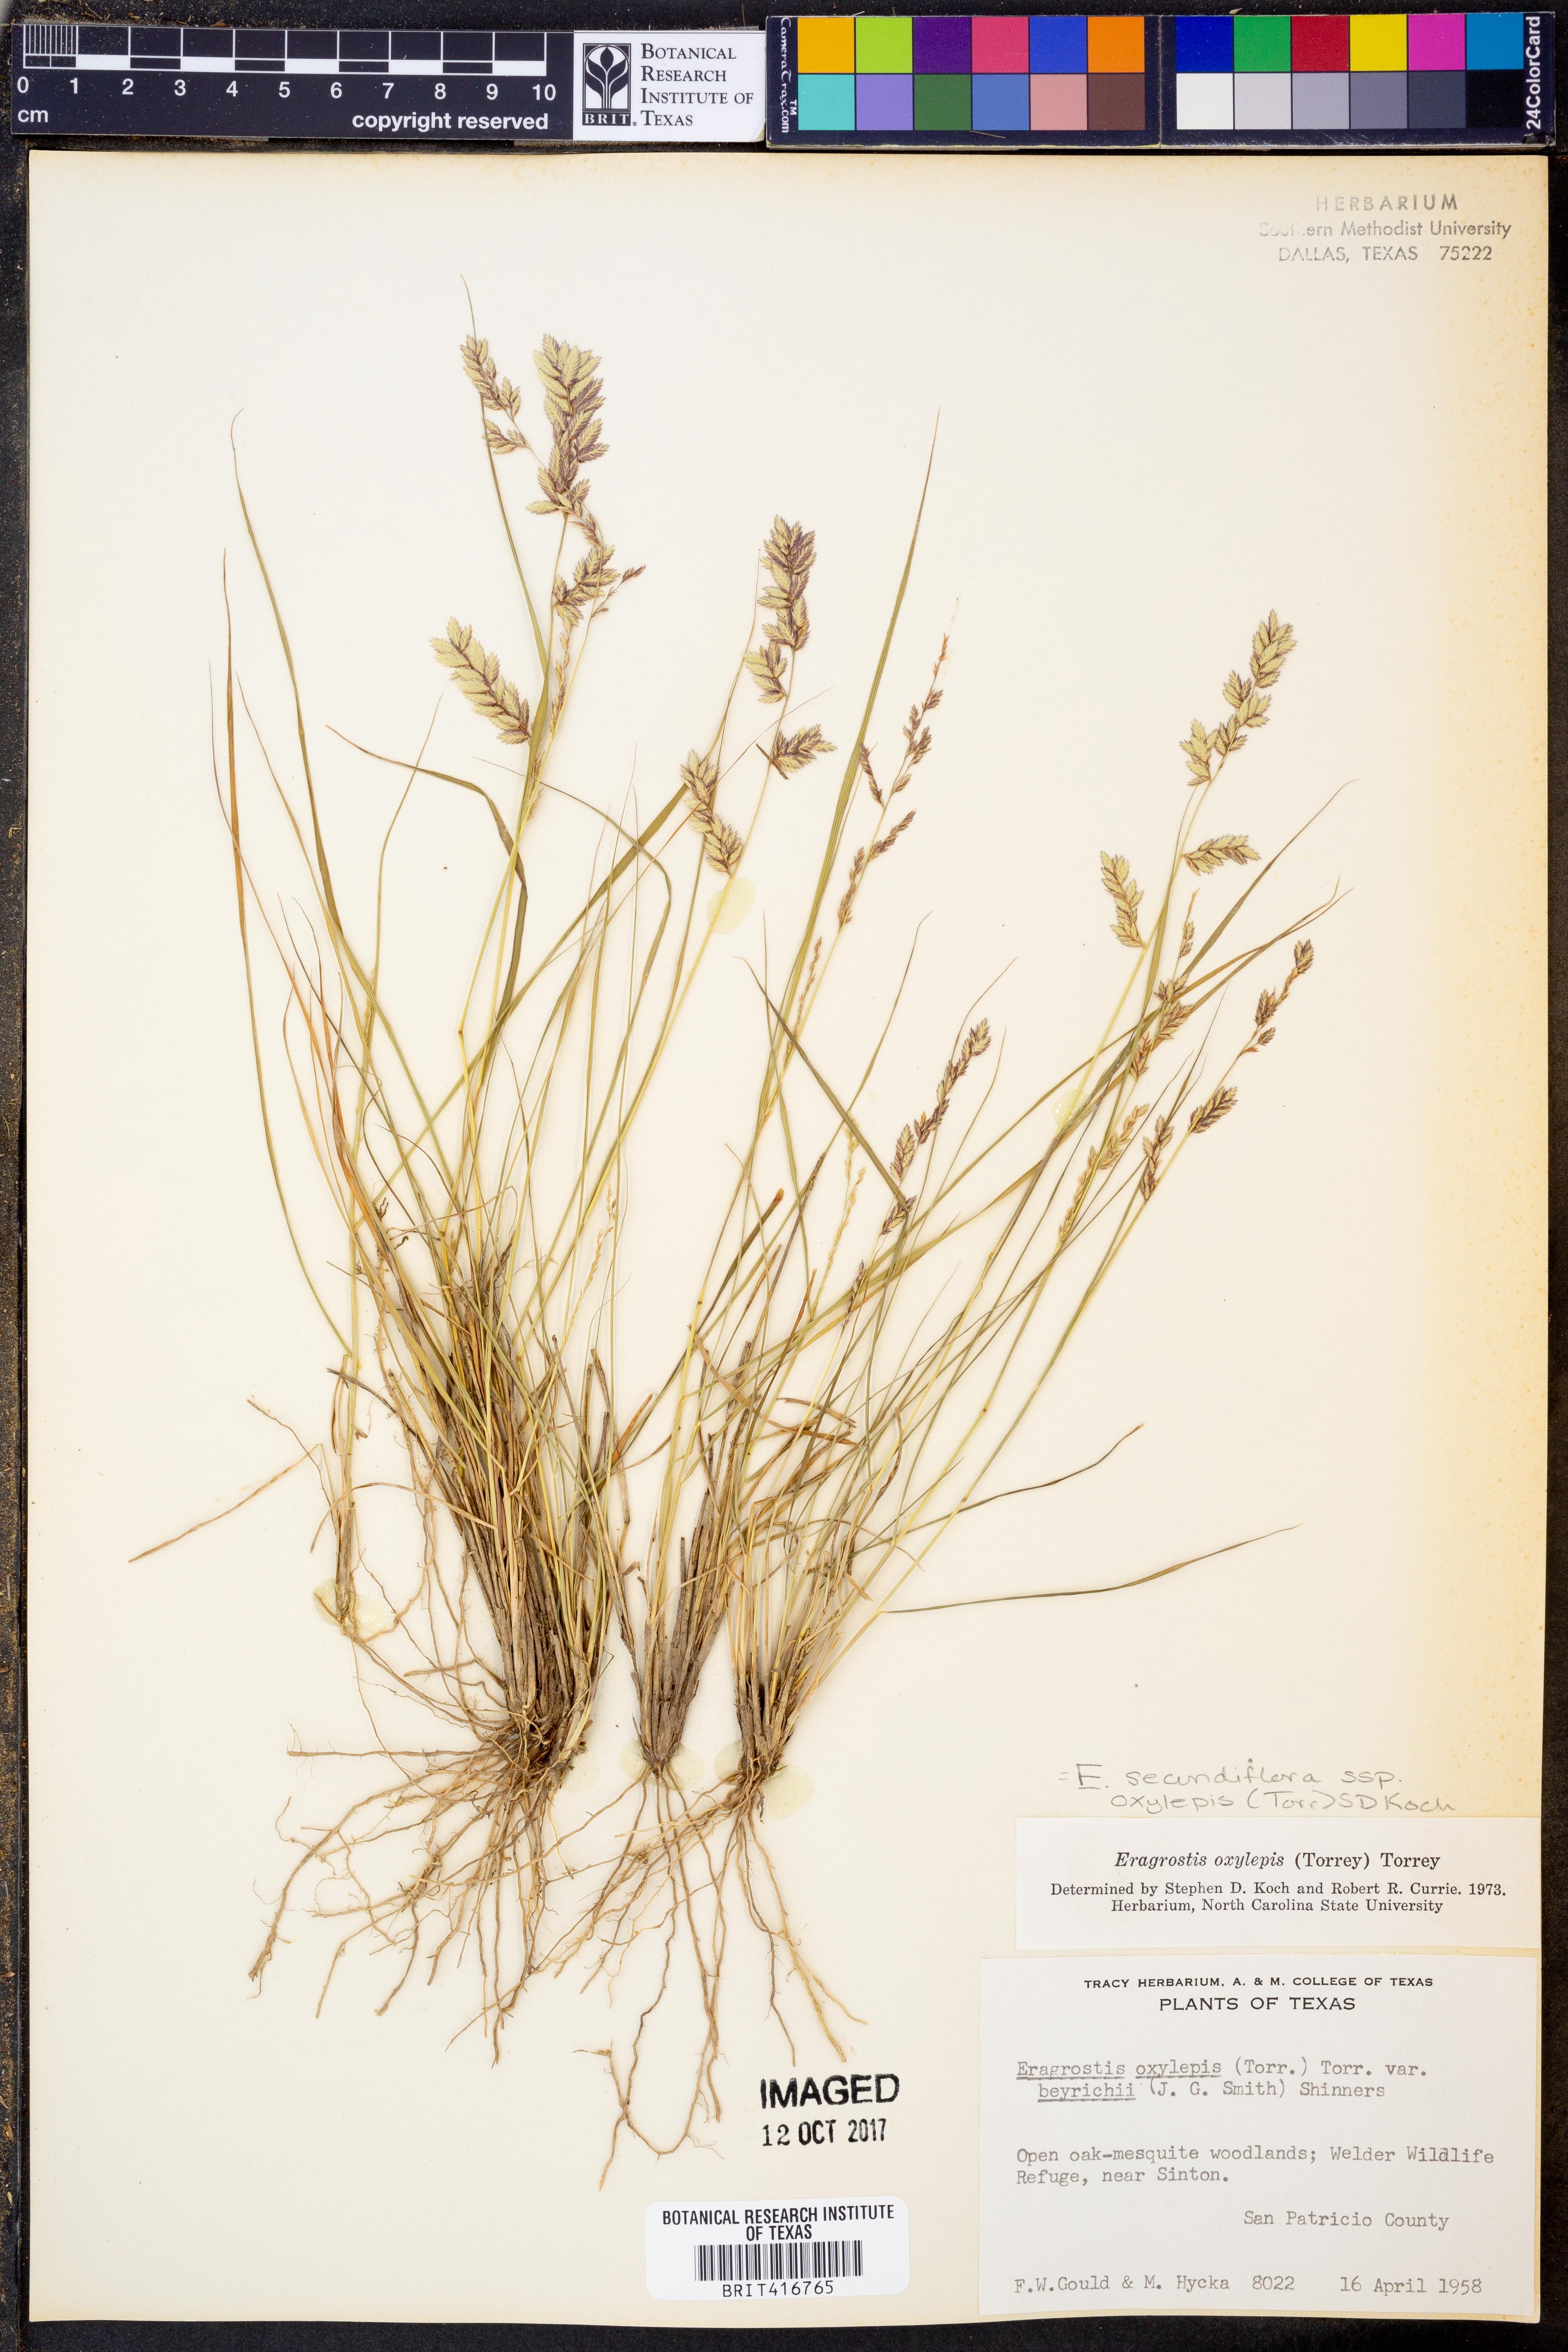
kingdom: Plantae
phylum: Tracheophyta
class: Liliopsida
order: Poales
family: Poaceae
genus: Eragrostis
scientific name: Eragrostis secundiflora
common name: Red love grass
